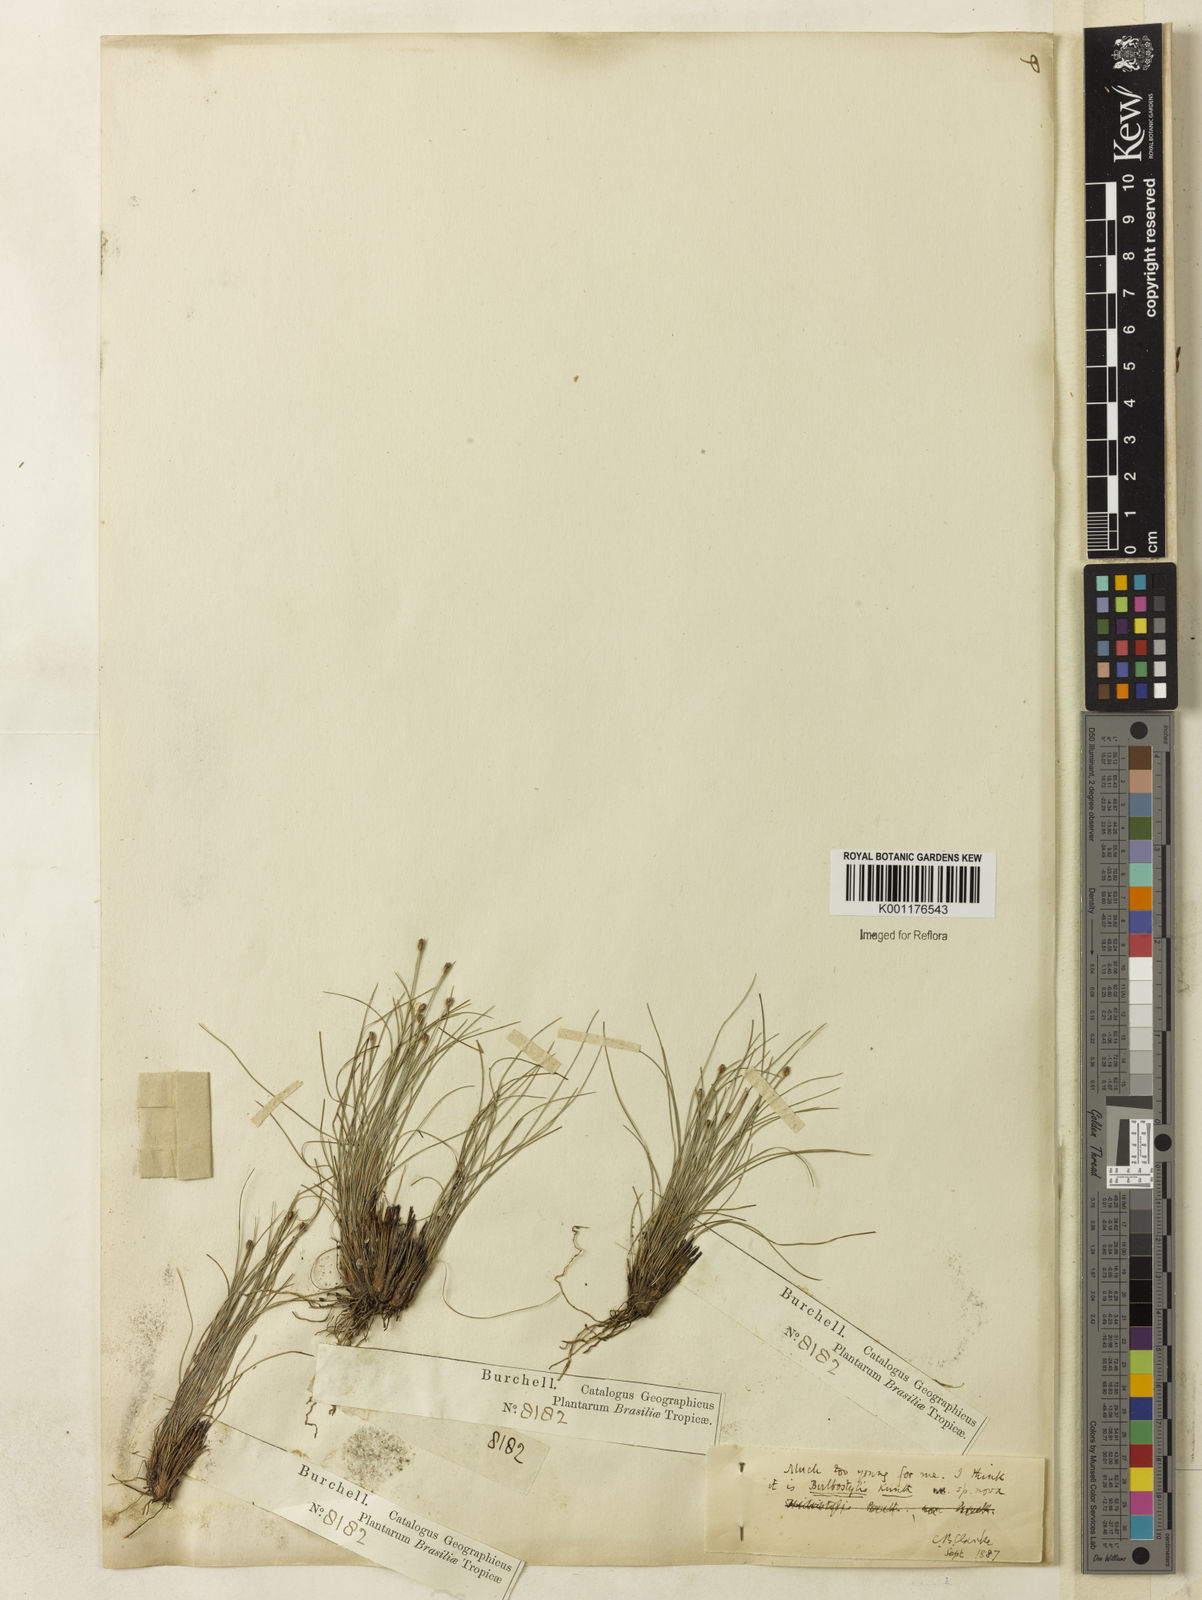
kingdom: Plantae
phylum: Tracheophyta
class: Liliopsida
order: Poales
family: Cyperaceae
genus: Bulbostylis
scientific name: Bulbostylis juncoides
